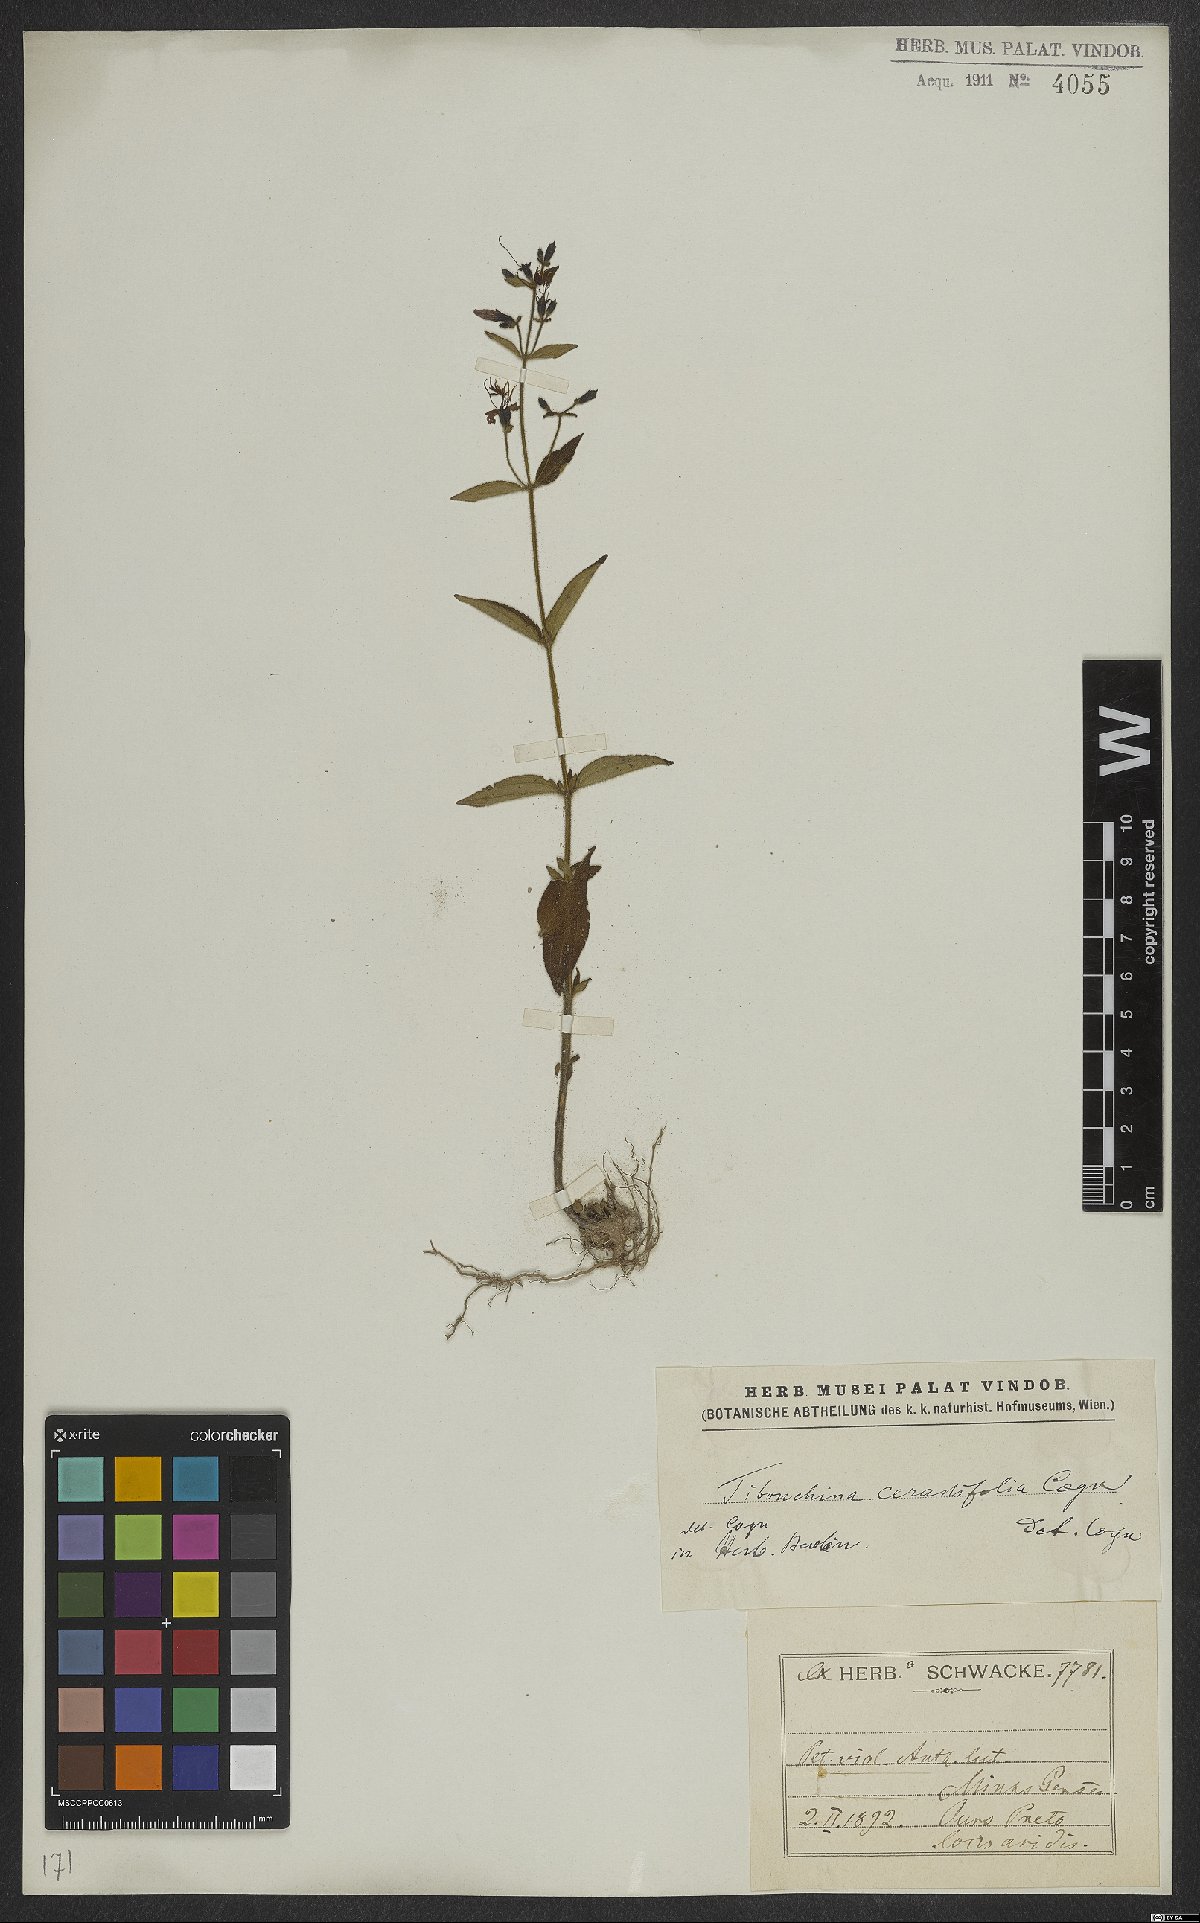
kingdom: Plantae
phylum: Tracheophyta
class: Magnoliopsida
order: Myrtales
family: Melastomataceae
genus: Chaetogastra
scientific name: Chaetogastra cerastifolia
